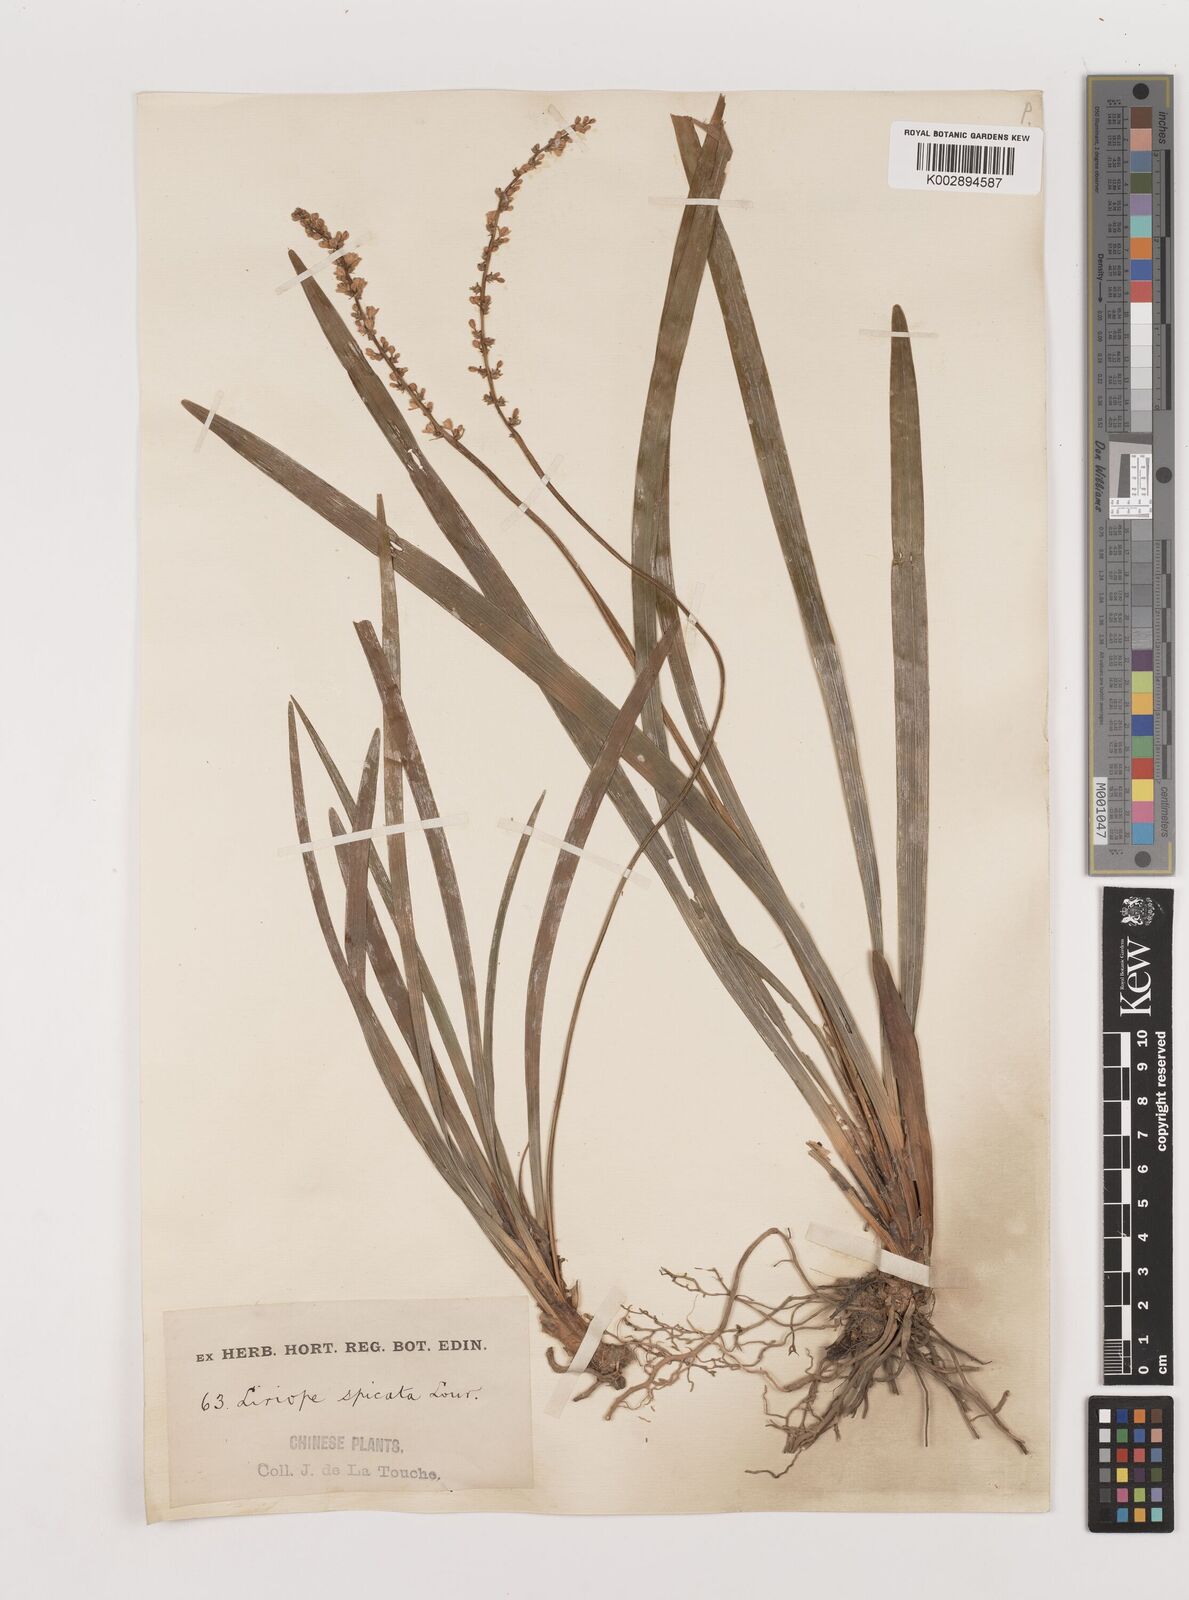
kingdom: Plantae
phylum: Tracheophyta
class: Liliopsida
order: Asparagales
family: Asparagaceae
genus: Liriope
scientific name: Liriope muscari
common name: Big blue lilyturf
